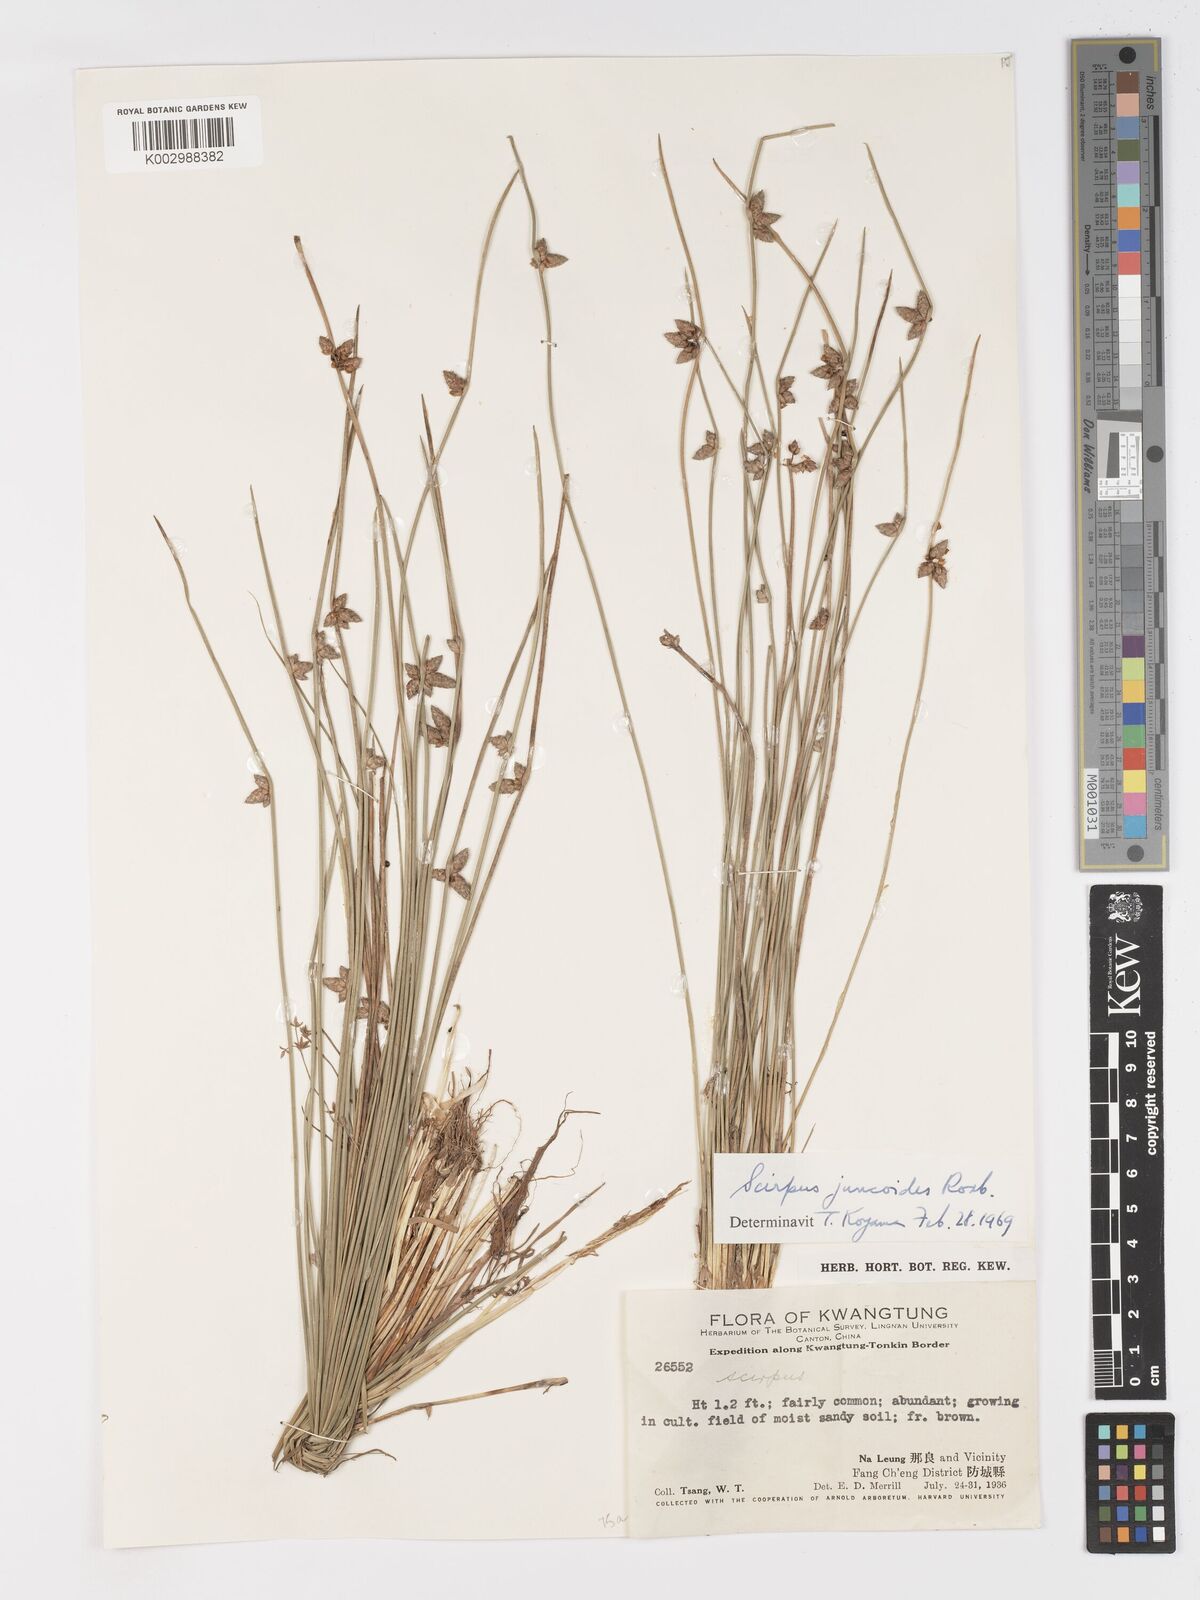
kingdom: Plantae
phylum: Tracheophyta
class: Liliopsida
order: Poales
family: Cyperaceae
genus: Schoenoplectiella
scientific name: Schoenoplectiella juncoides
